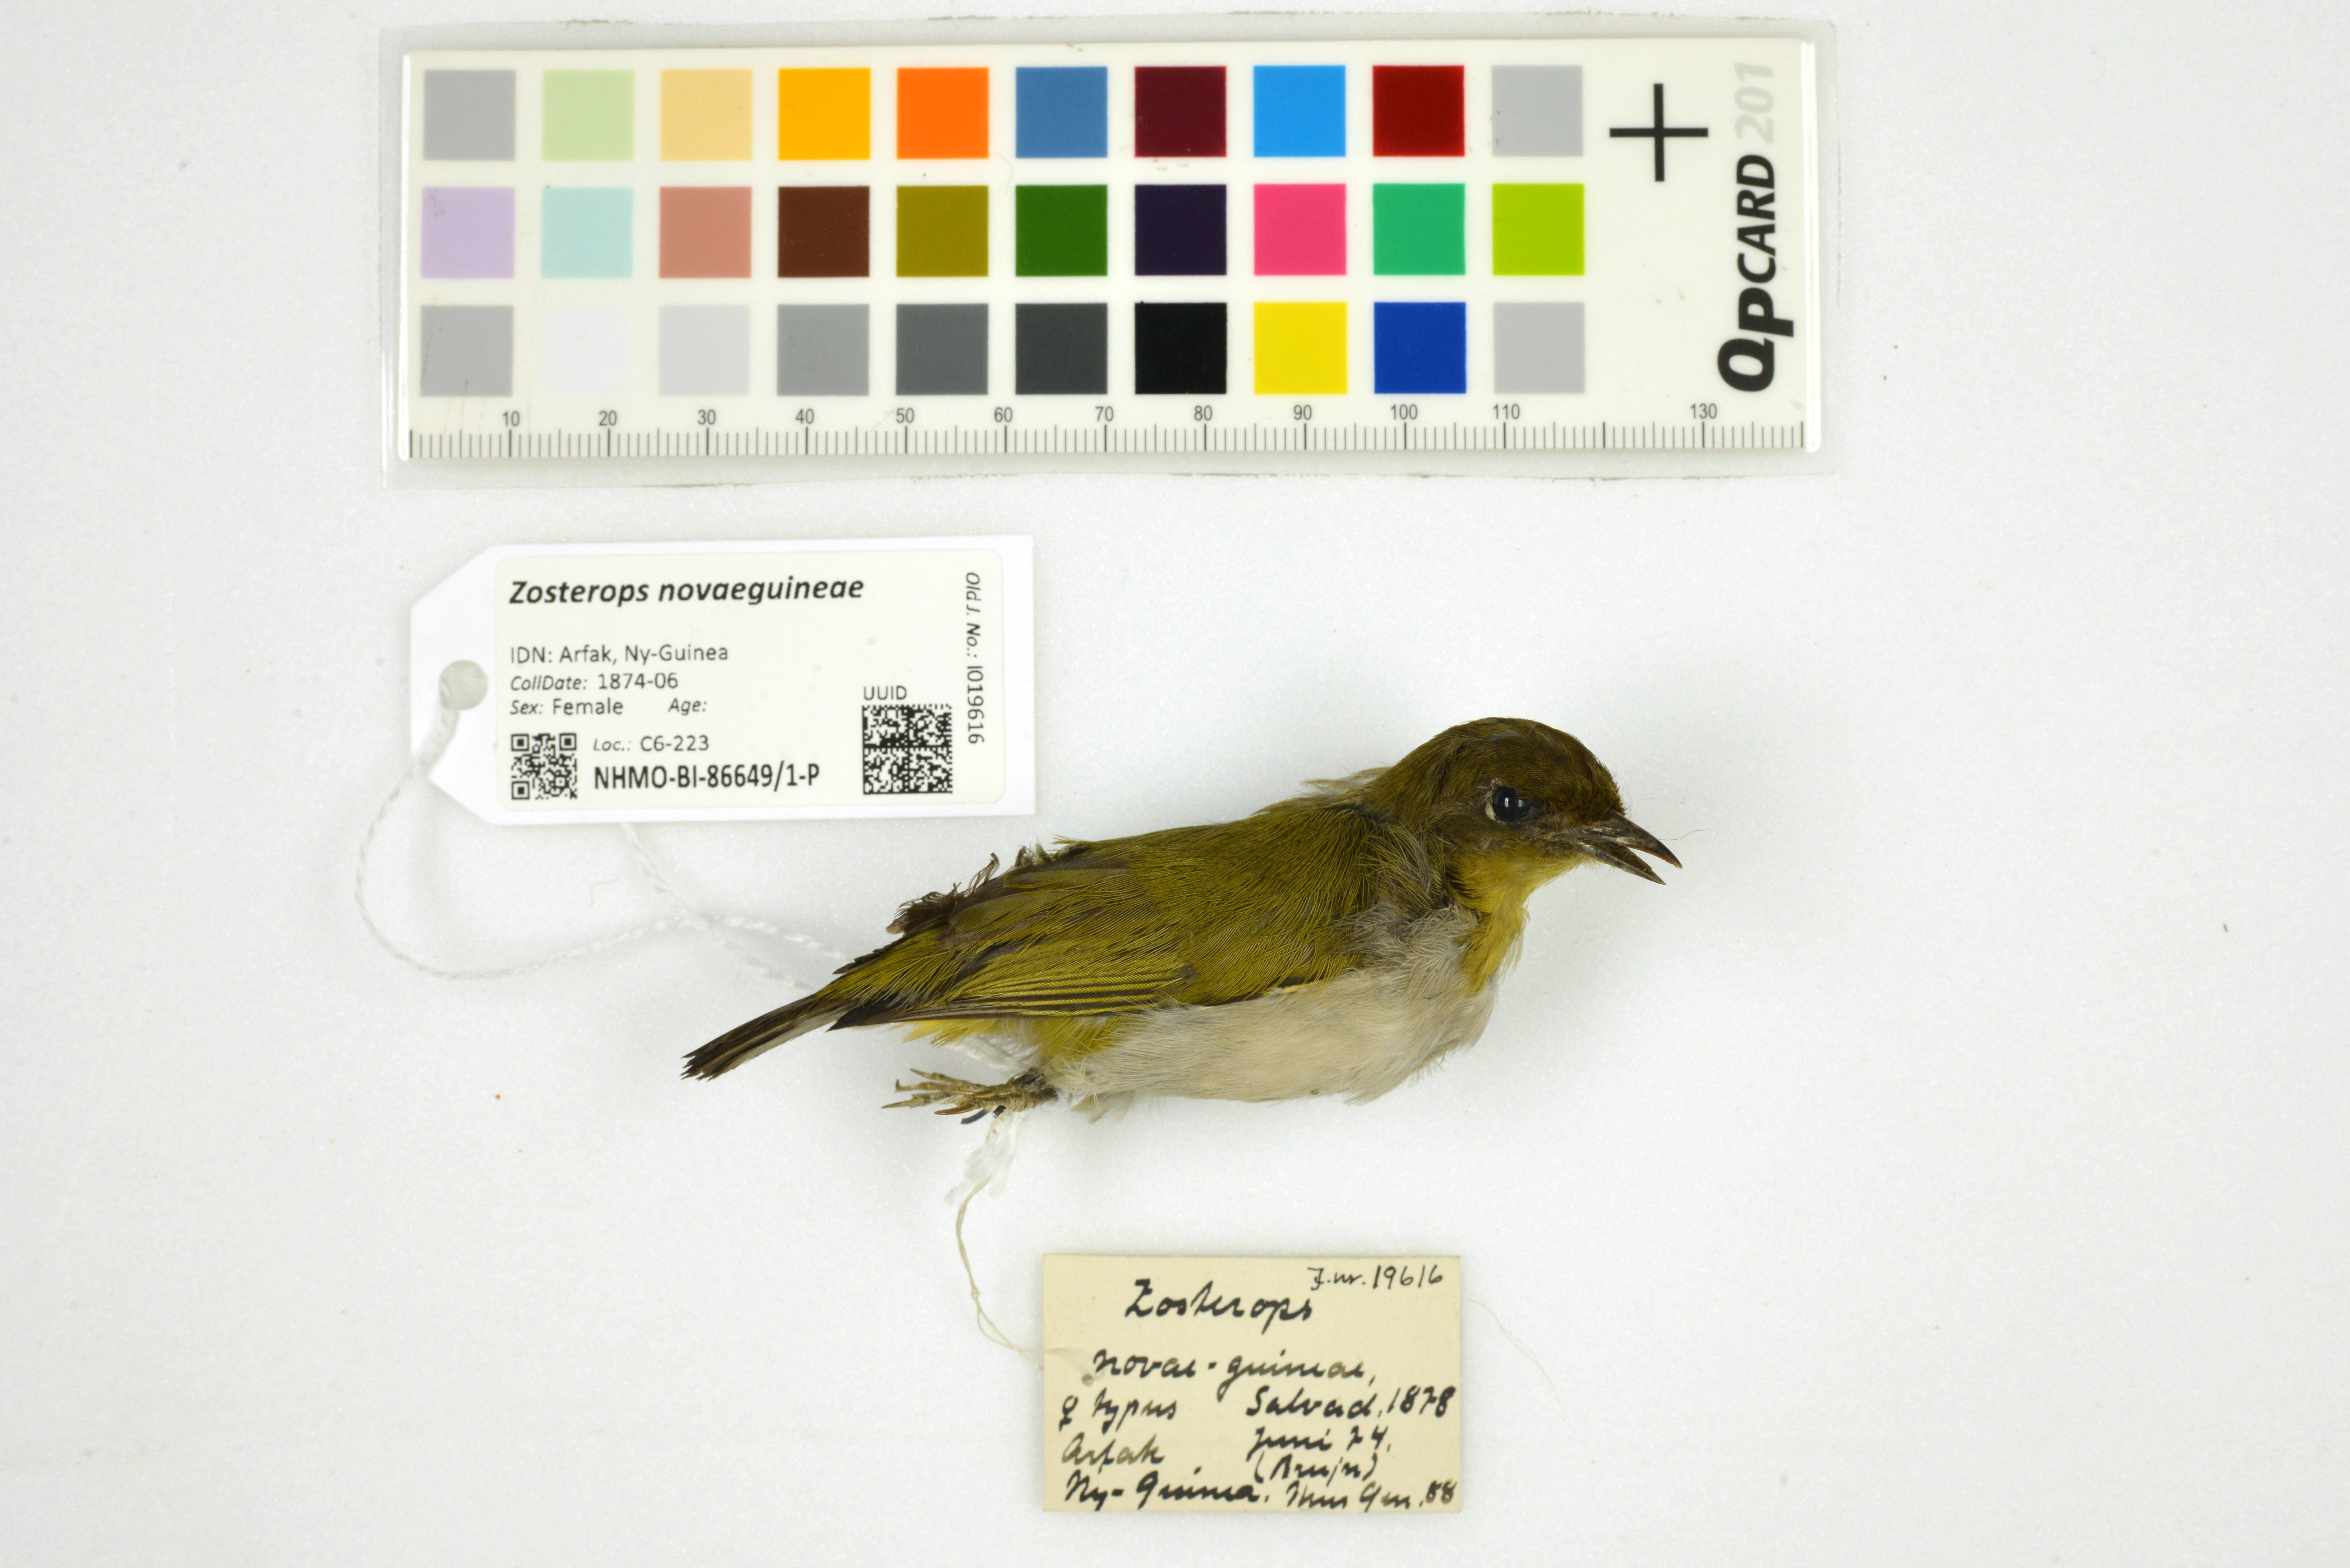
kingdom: Animalia
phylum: Chordata
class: Aves
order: Passeriformes
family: Zosteropidae
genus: Zosterops
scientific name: Zosterops novaeguineae
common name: Papuan white-eye
